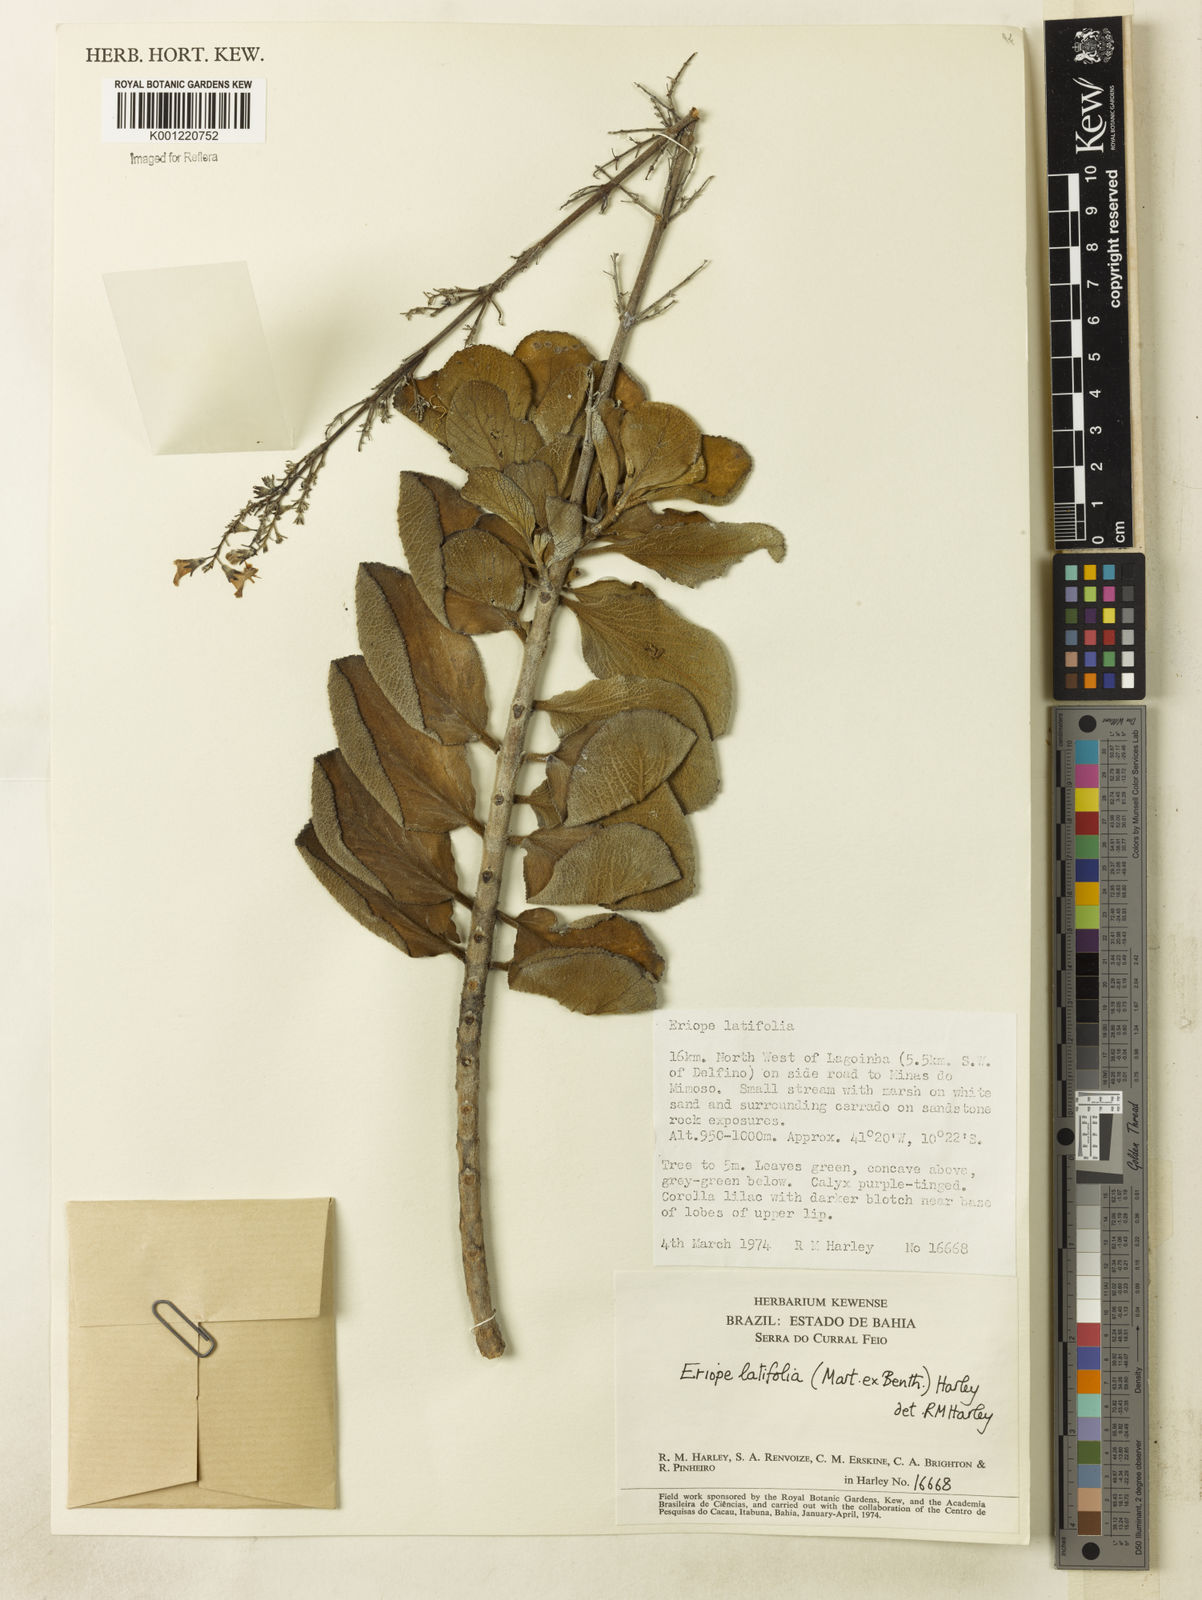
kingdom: Plantae
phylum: Tracheophyta
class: Magnoliopsida
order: Lamiales
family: Lamiaceae
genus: Eriope
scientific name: Eriope latifolia
